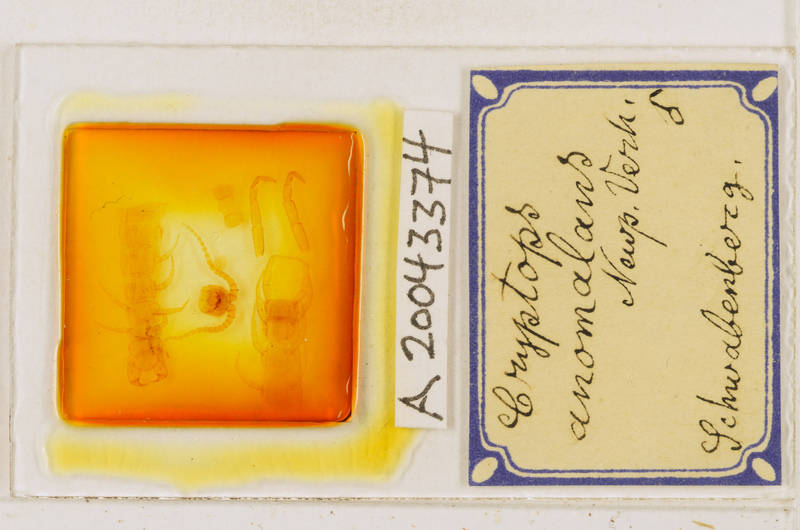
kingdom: Animalia
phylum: Arthropoda
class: Chilopoda
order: Scolopendromorpha
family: Cryptopidae
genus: Cryptops
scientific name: Cryptops anomalans
